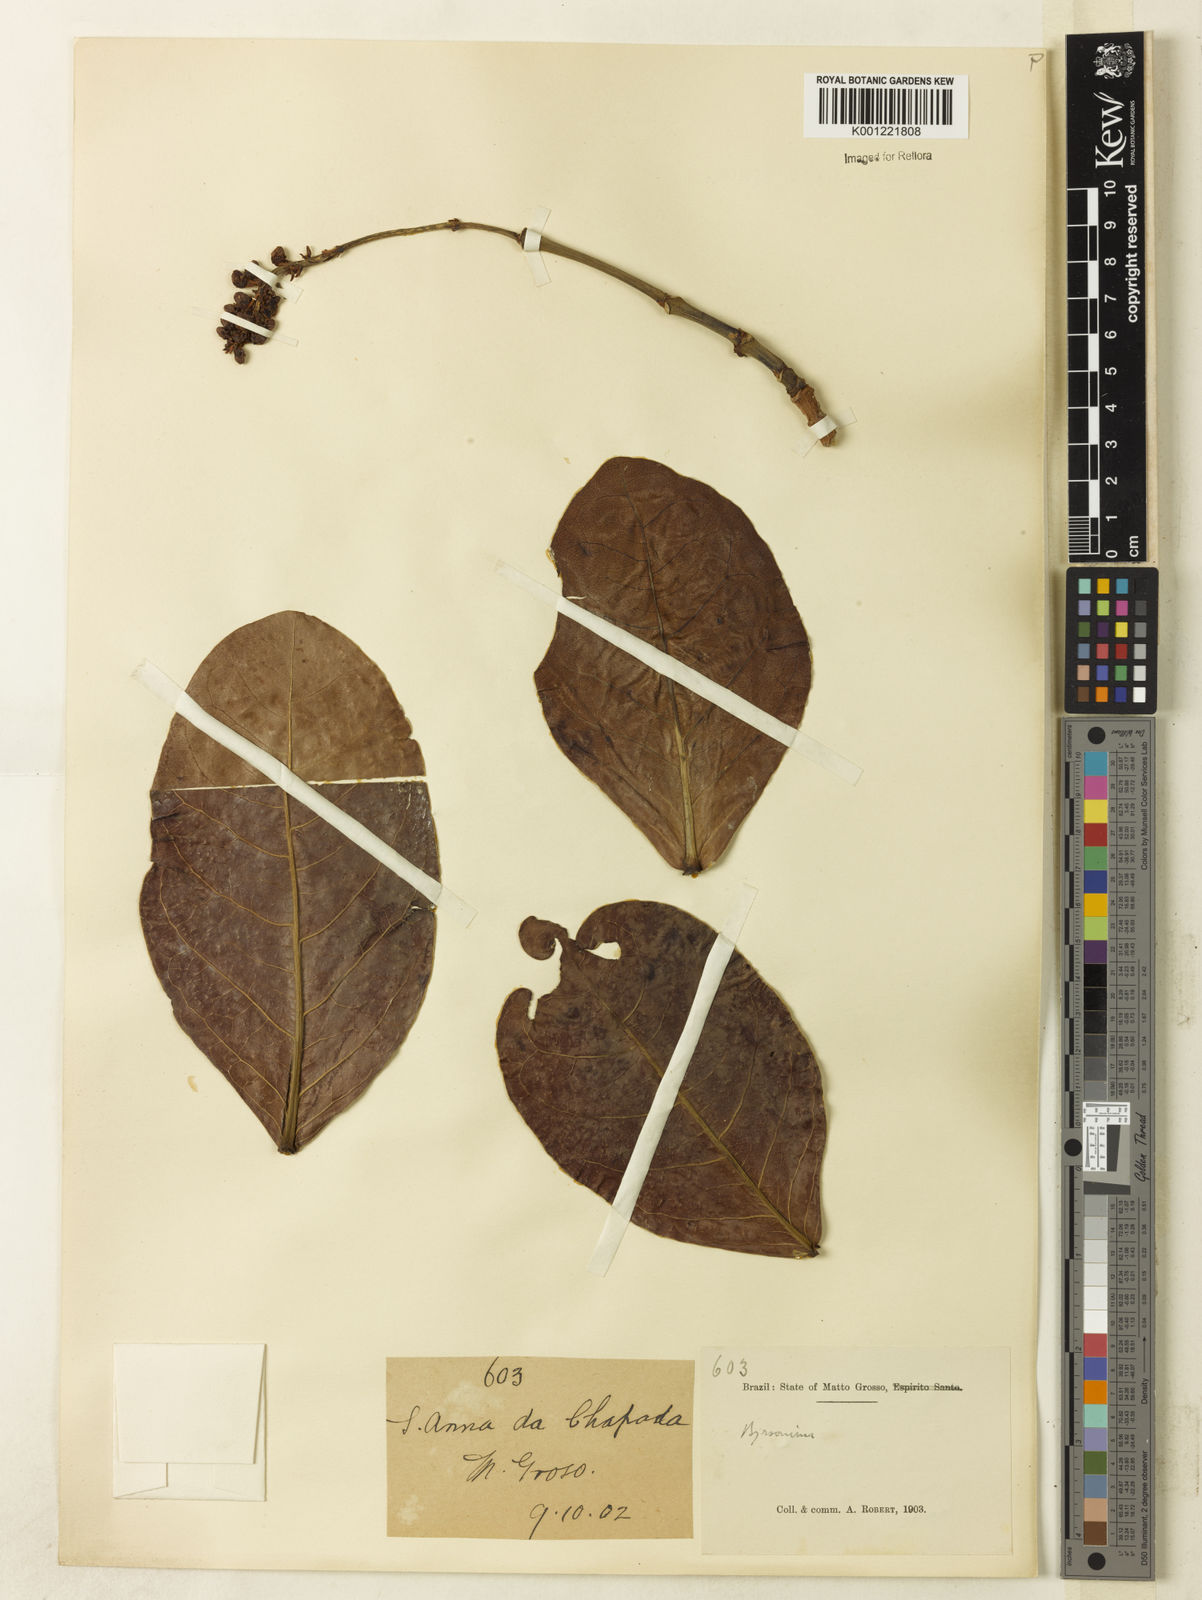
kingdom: Plantae
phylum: Tracheophyta
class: Magnoliopsida
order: Malpighiales
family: Malpighiaceae
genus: Byrsonima
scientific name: Byrsonima coccolobifolia
